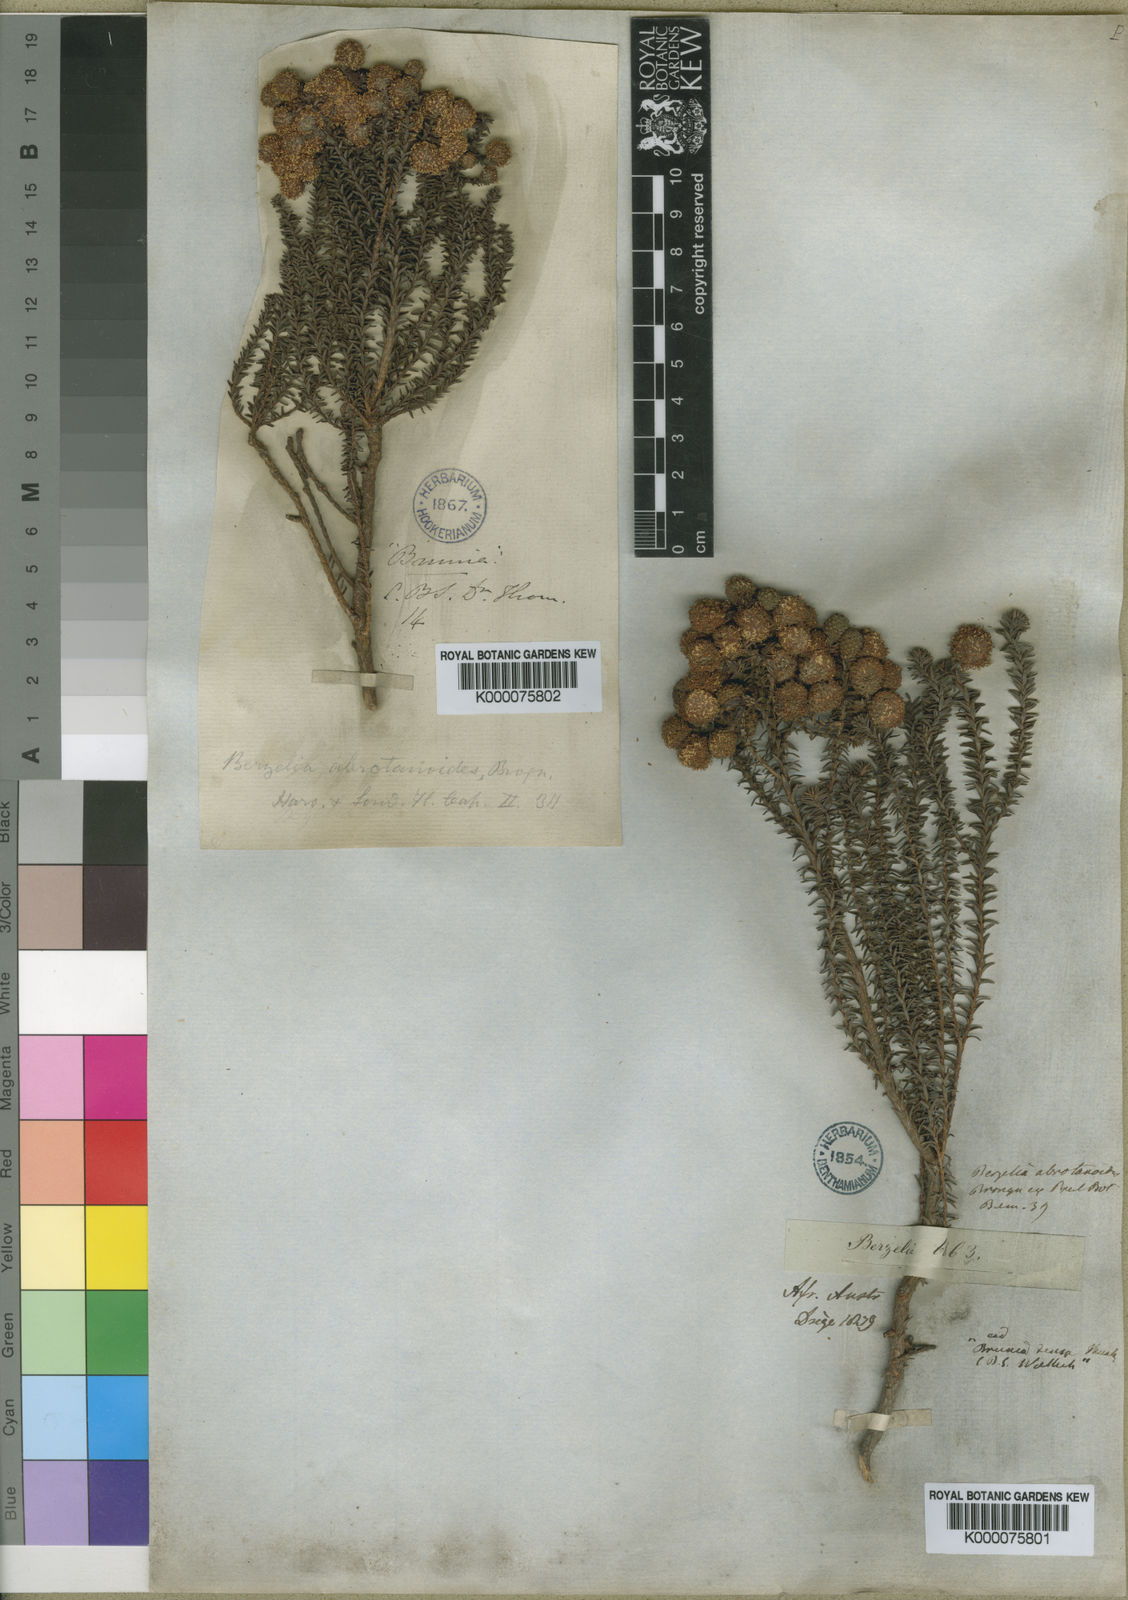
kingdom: Plantae
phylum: Tracheophyta
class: Magnoliopsida
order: Bruniales
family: Bruniaceae
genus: Berzelia
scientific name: Berzelia abrotanoides
